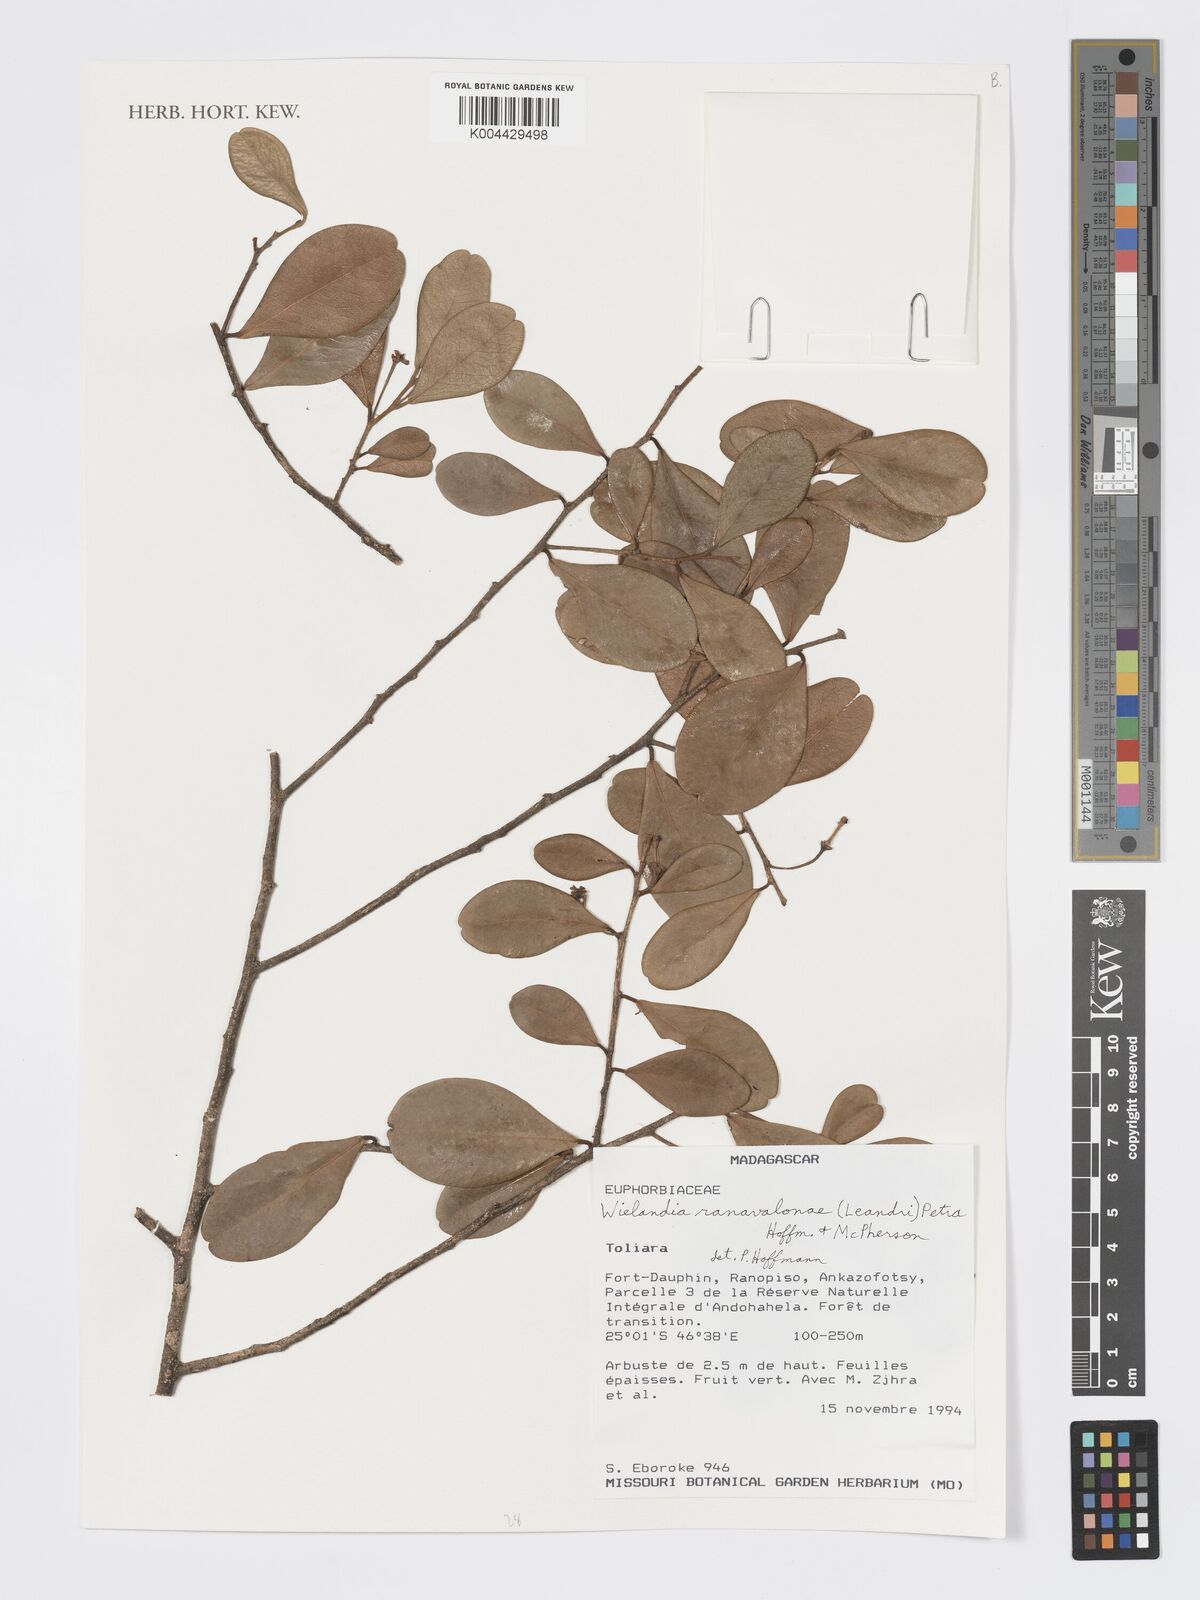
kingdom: Plantae
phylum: Tracheophyta
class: Magnoliopsida
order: Malpighiales
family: Phyllanthaceae
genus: Wielandia
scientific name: Wielandia ranavalonae
